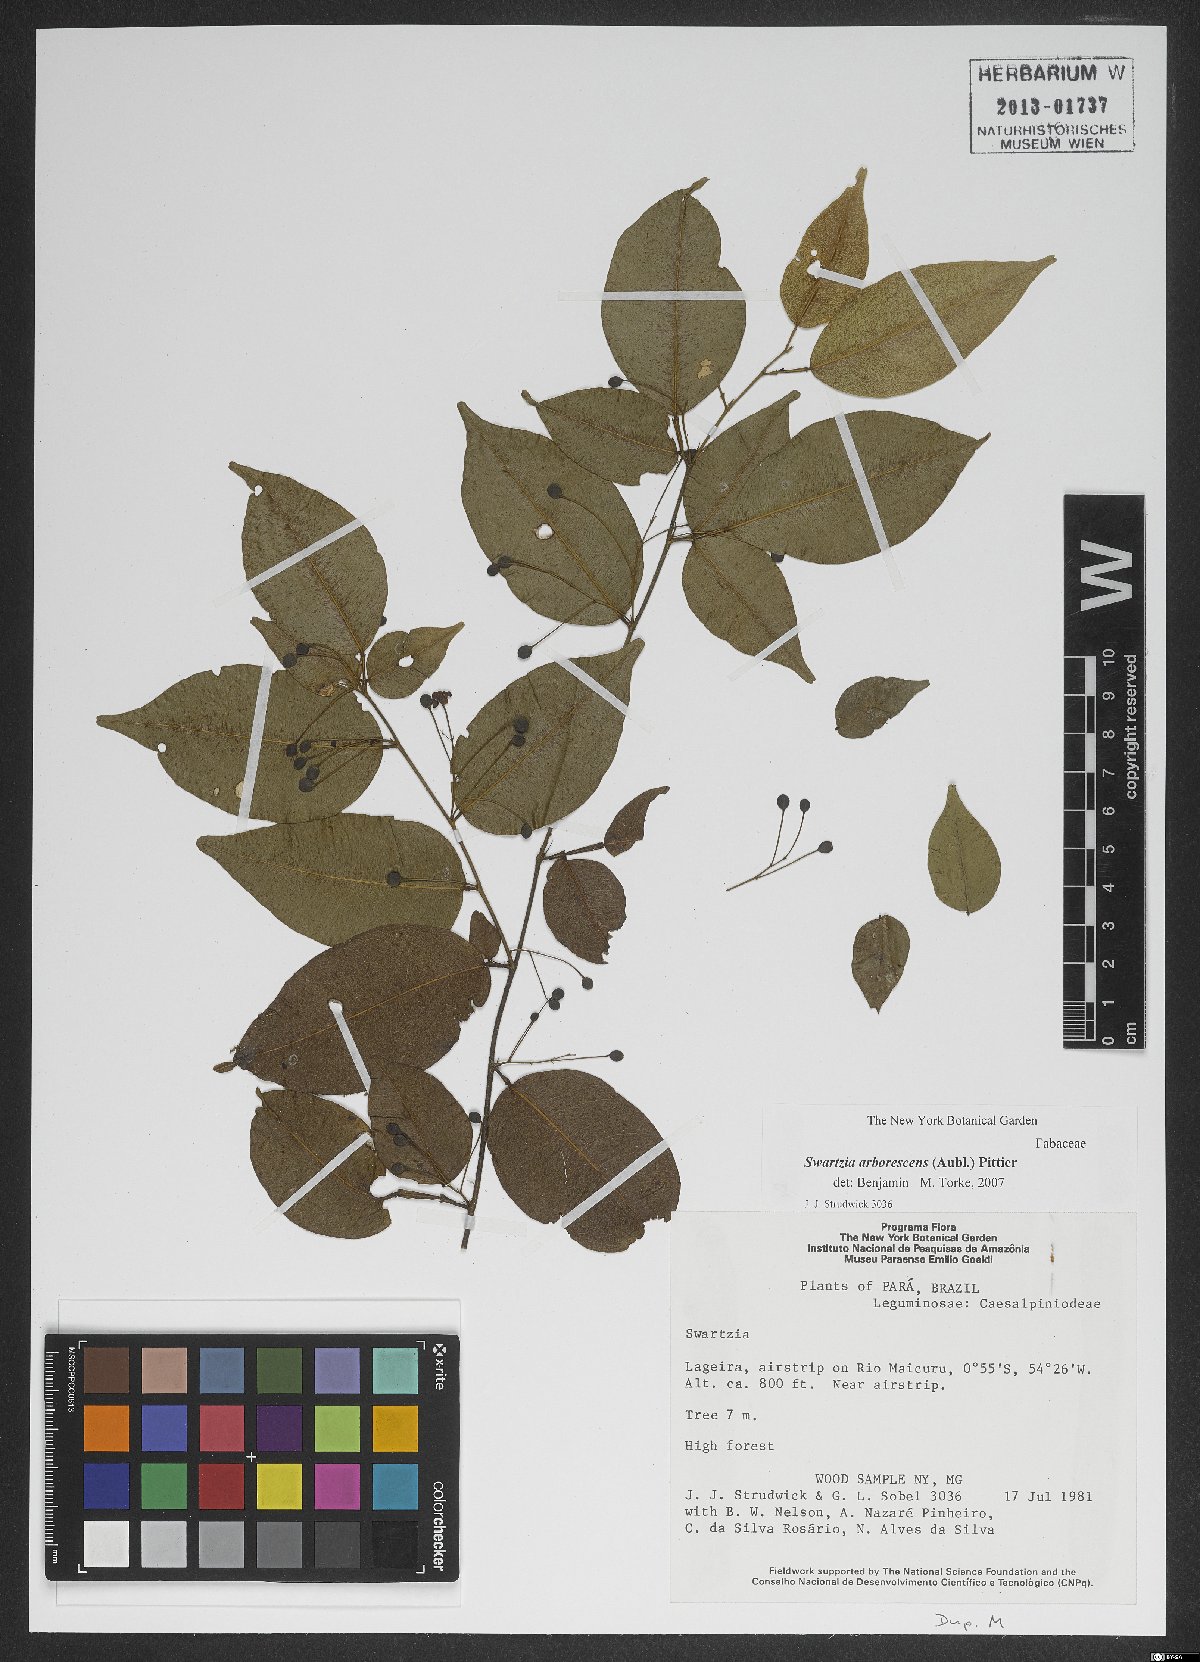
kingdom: Plantae
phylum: Tracheophyta
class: Magnoliopsida
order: Fabales
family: Fabaceae
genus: Swartzia
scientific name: Swartzia arborescens
